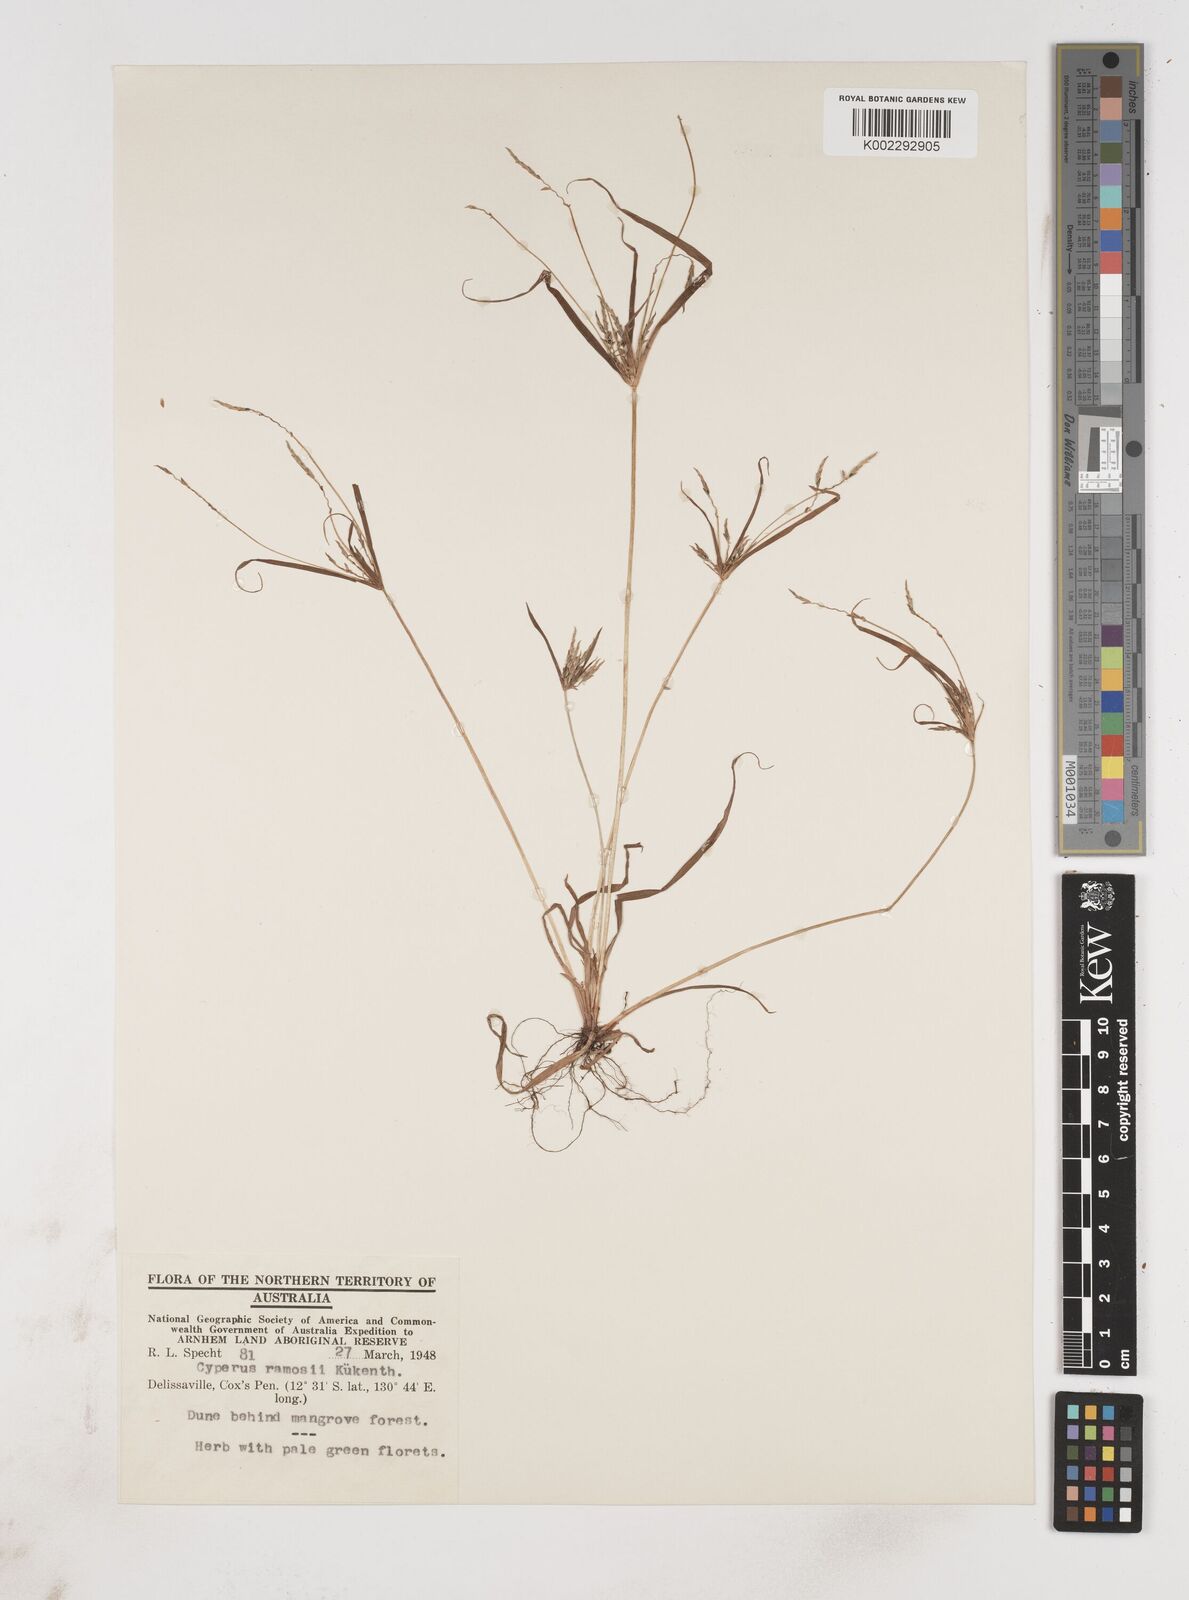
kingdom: Plantae
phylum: Tracheophyta
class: Liliopsida
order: Poales
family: Cyperaceae
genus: Cyperus
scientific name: Cyperus zollingeri
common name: Roadside flatsedge
